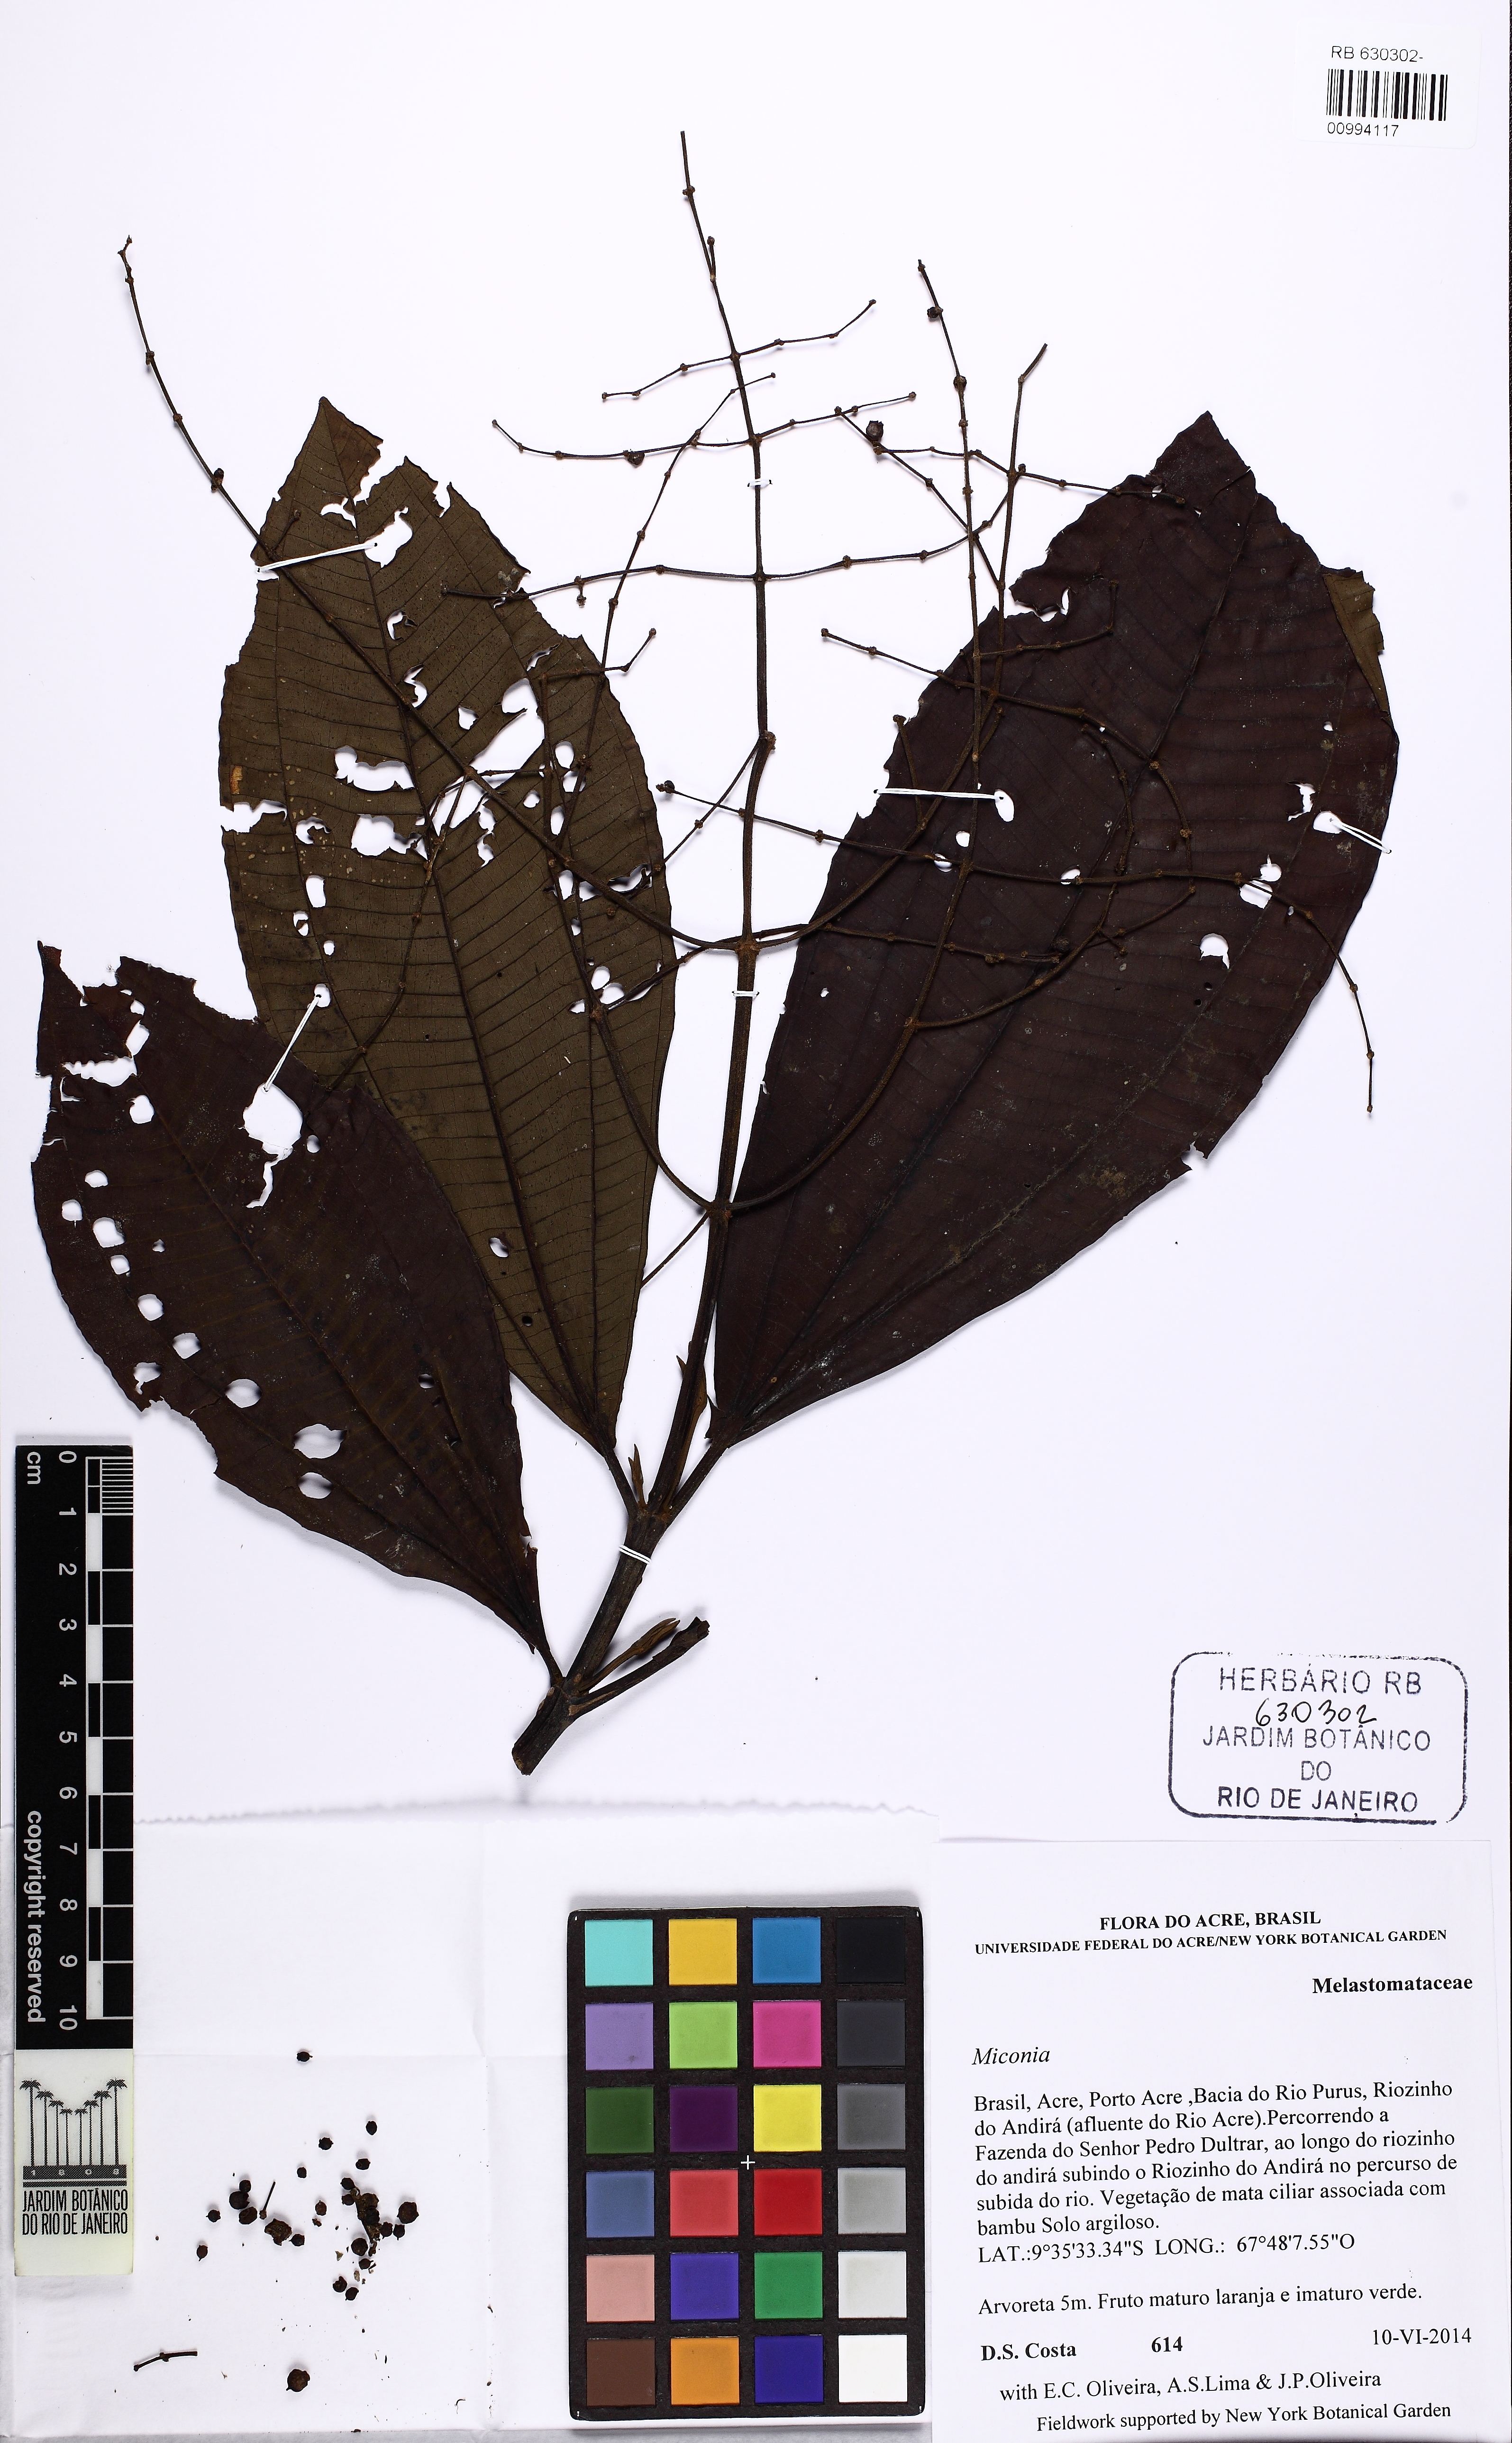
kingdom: Plantae
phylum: Tracheophyta
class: Magnoliopsida
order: Myrtales
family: Melastomataceae
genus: Miconia
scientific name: Miconia
